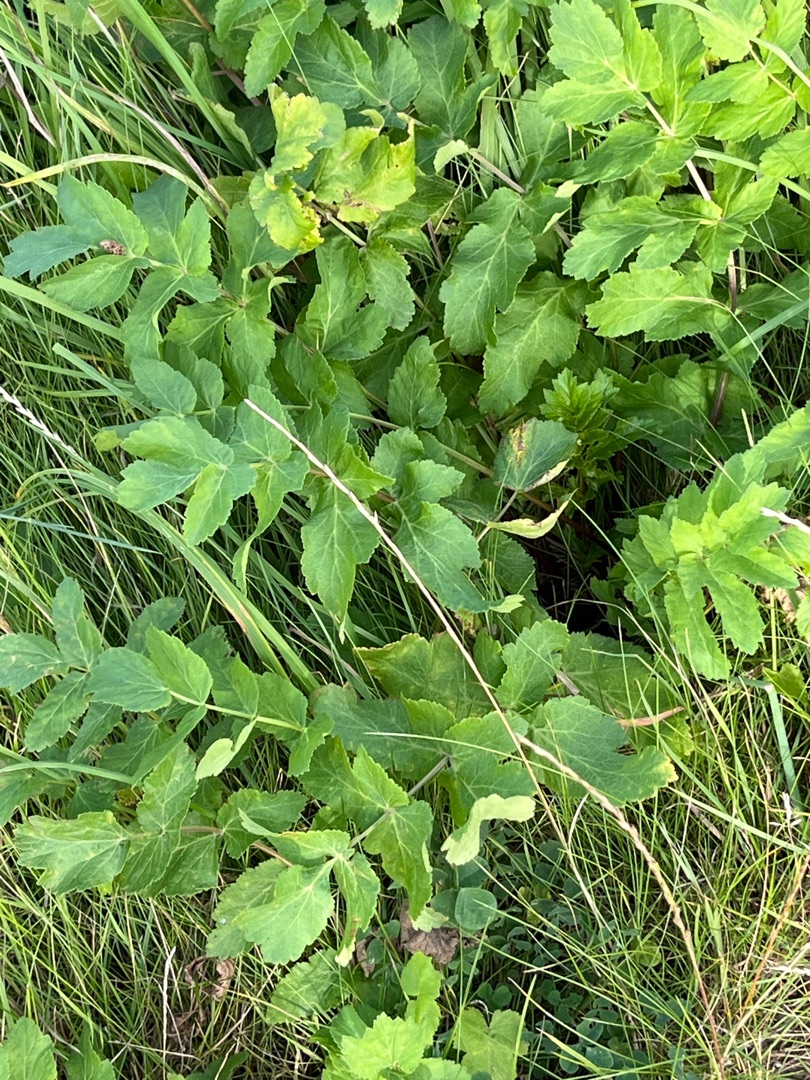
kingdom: Plantae
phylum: Tracheophyta
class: Magnoliopsida
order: Apiales
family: Apiaceae
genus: Pastinaca
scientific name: Pastinaca sativa
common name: Pastinak
